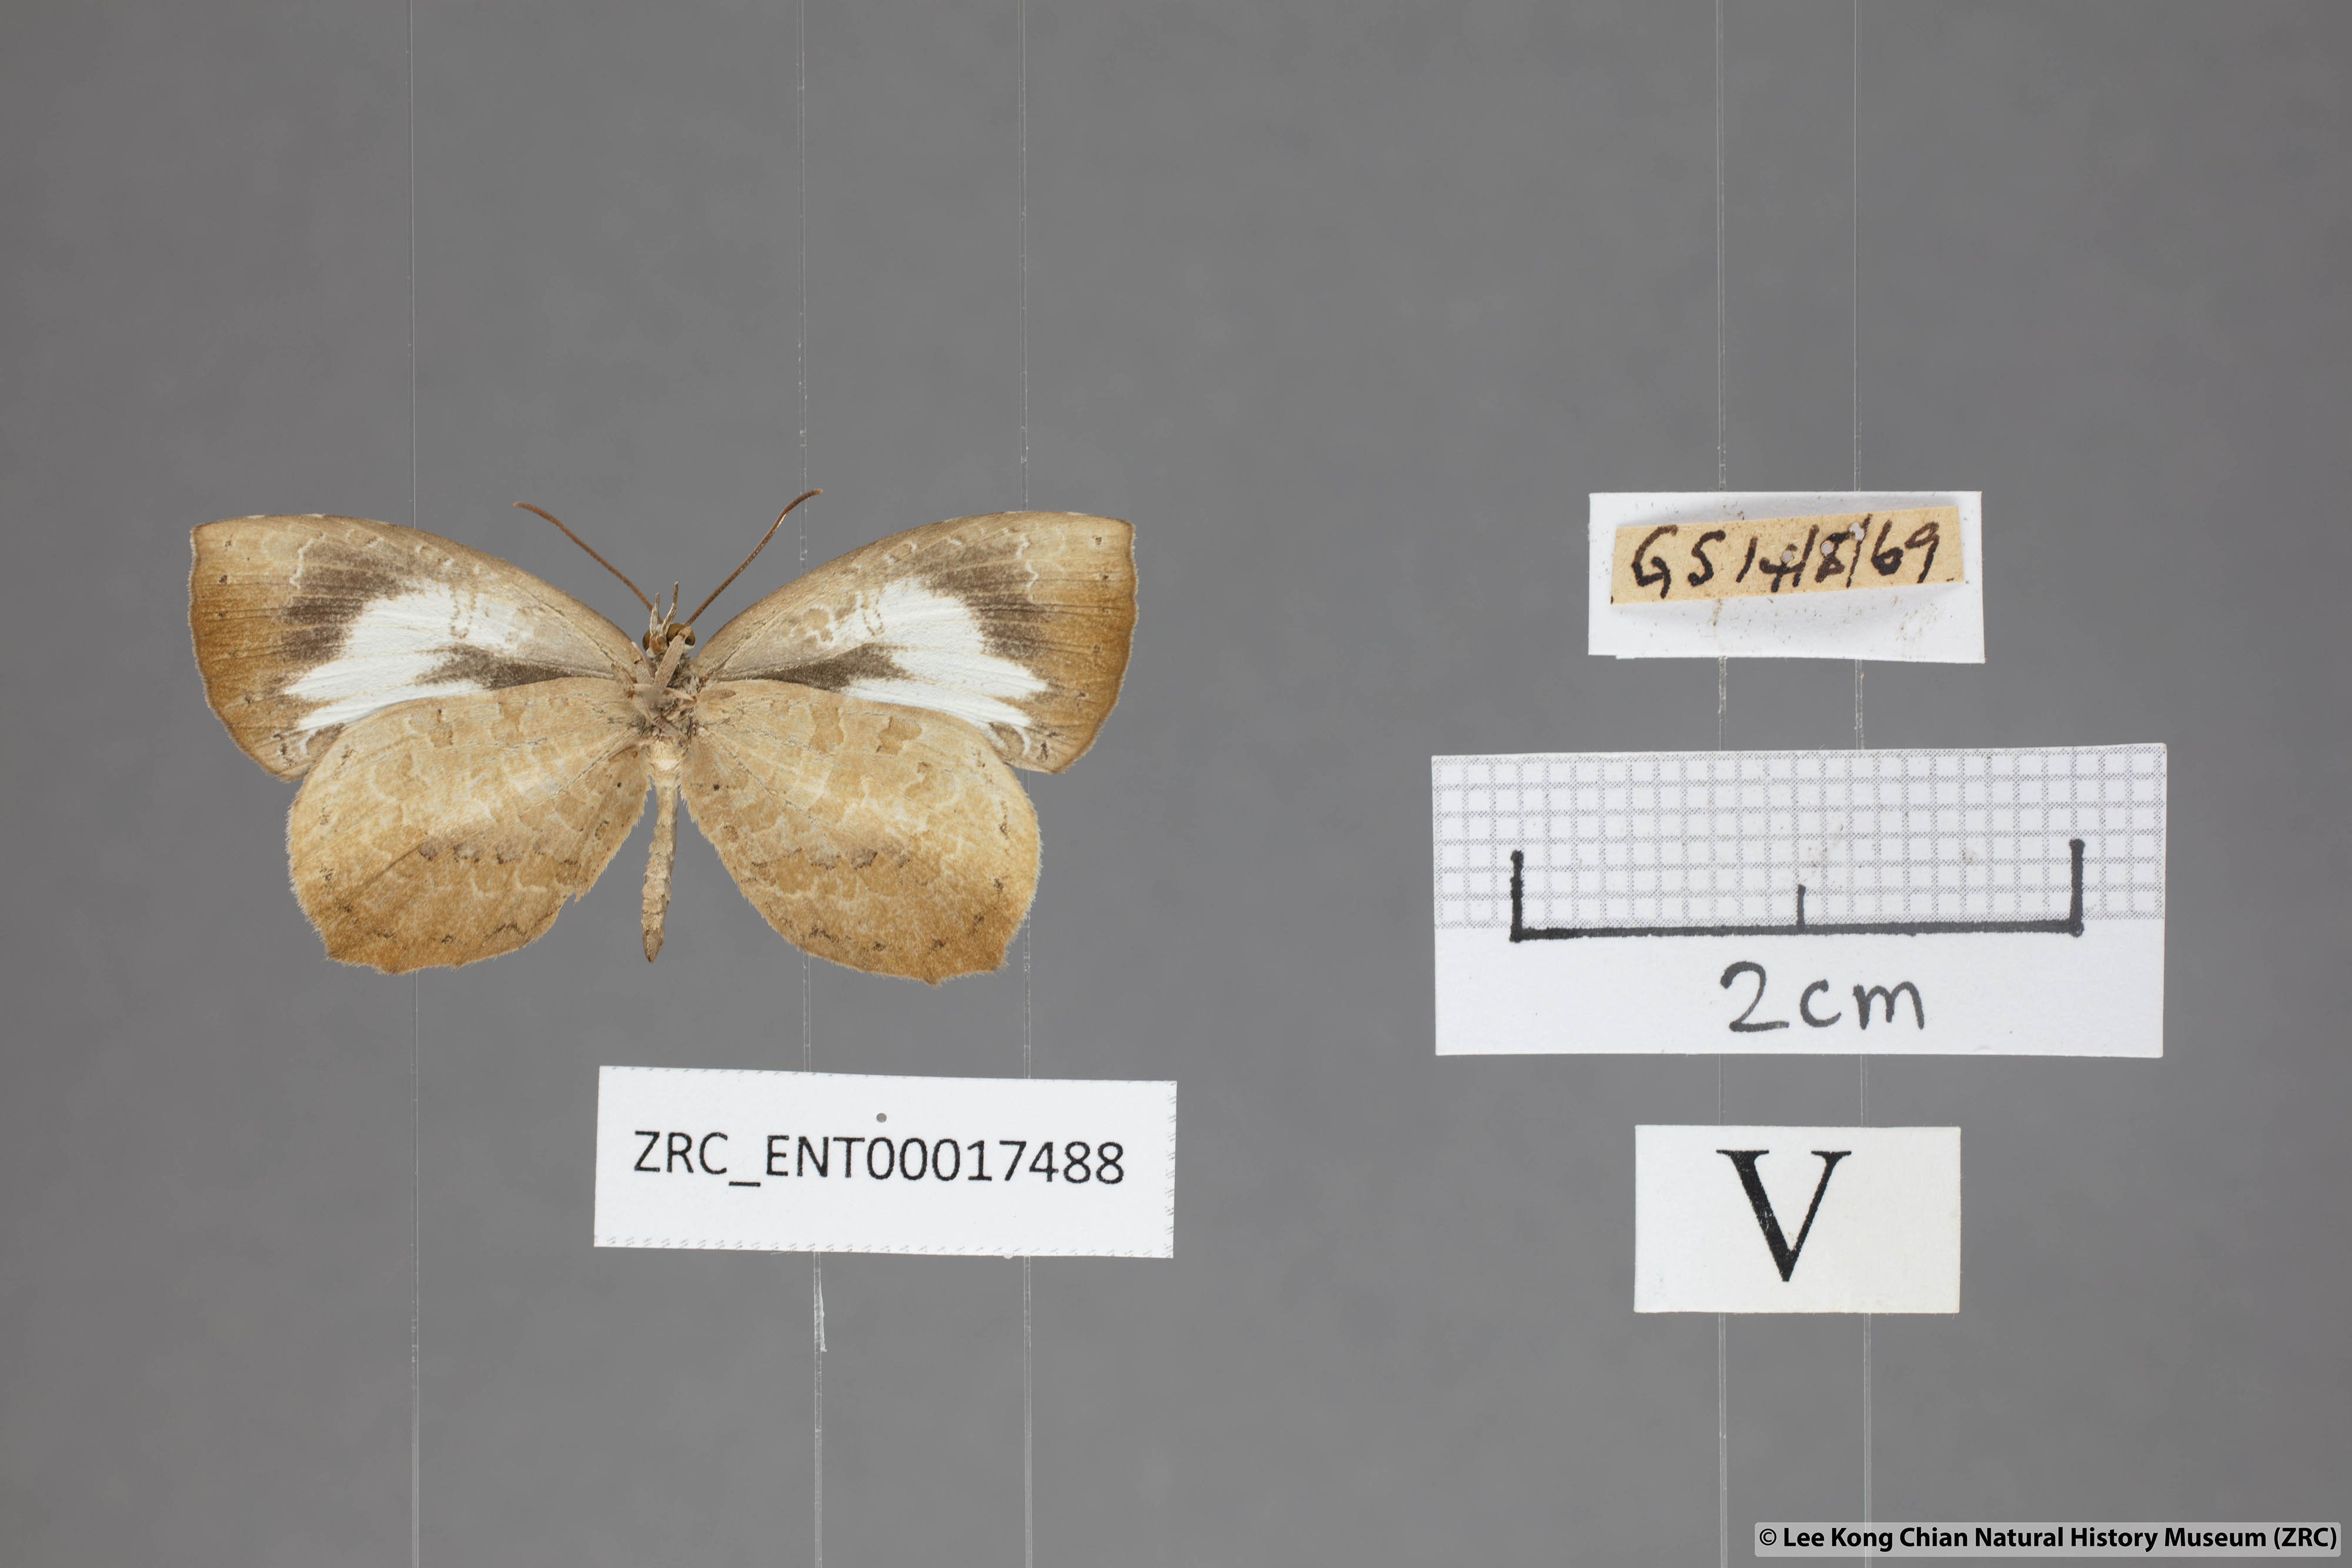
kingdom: Animalia
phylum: Arthropoda
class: Insecta
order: Lepidoptera
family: Lycaenidae
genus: Miletus
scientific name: Miletus symethus
